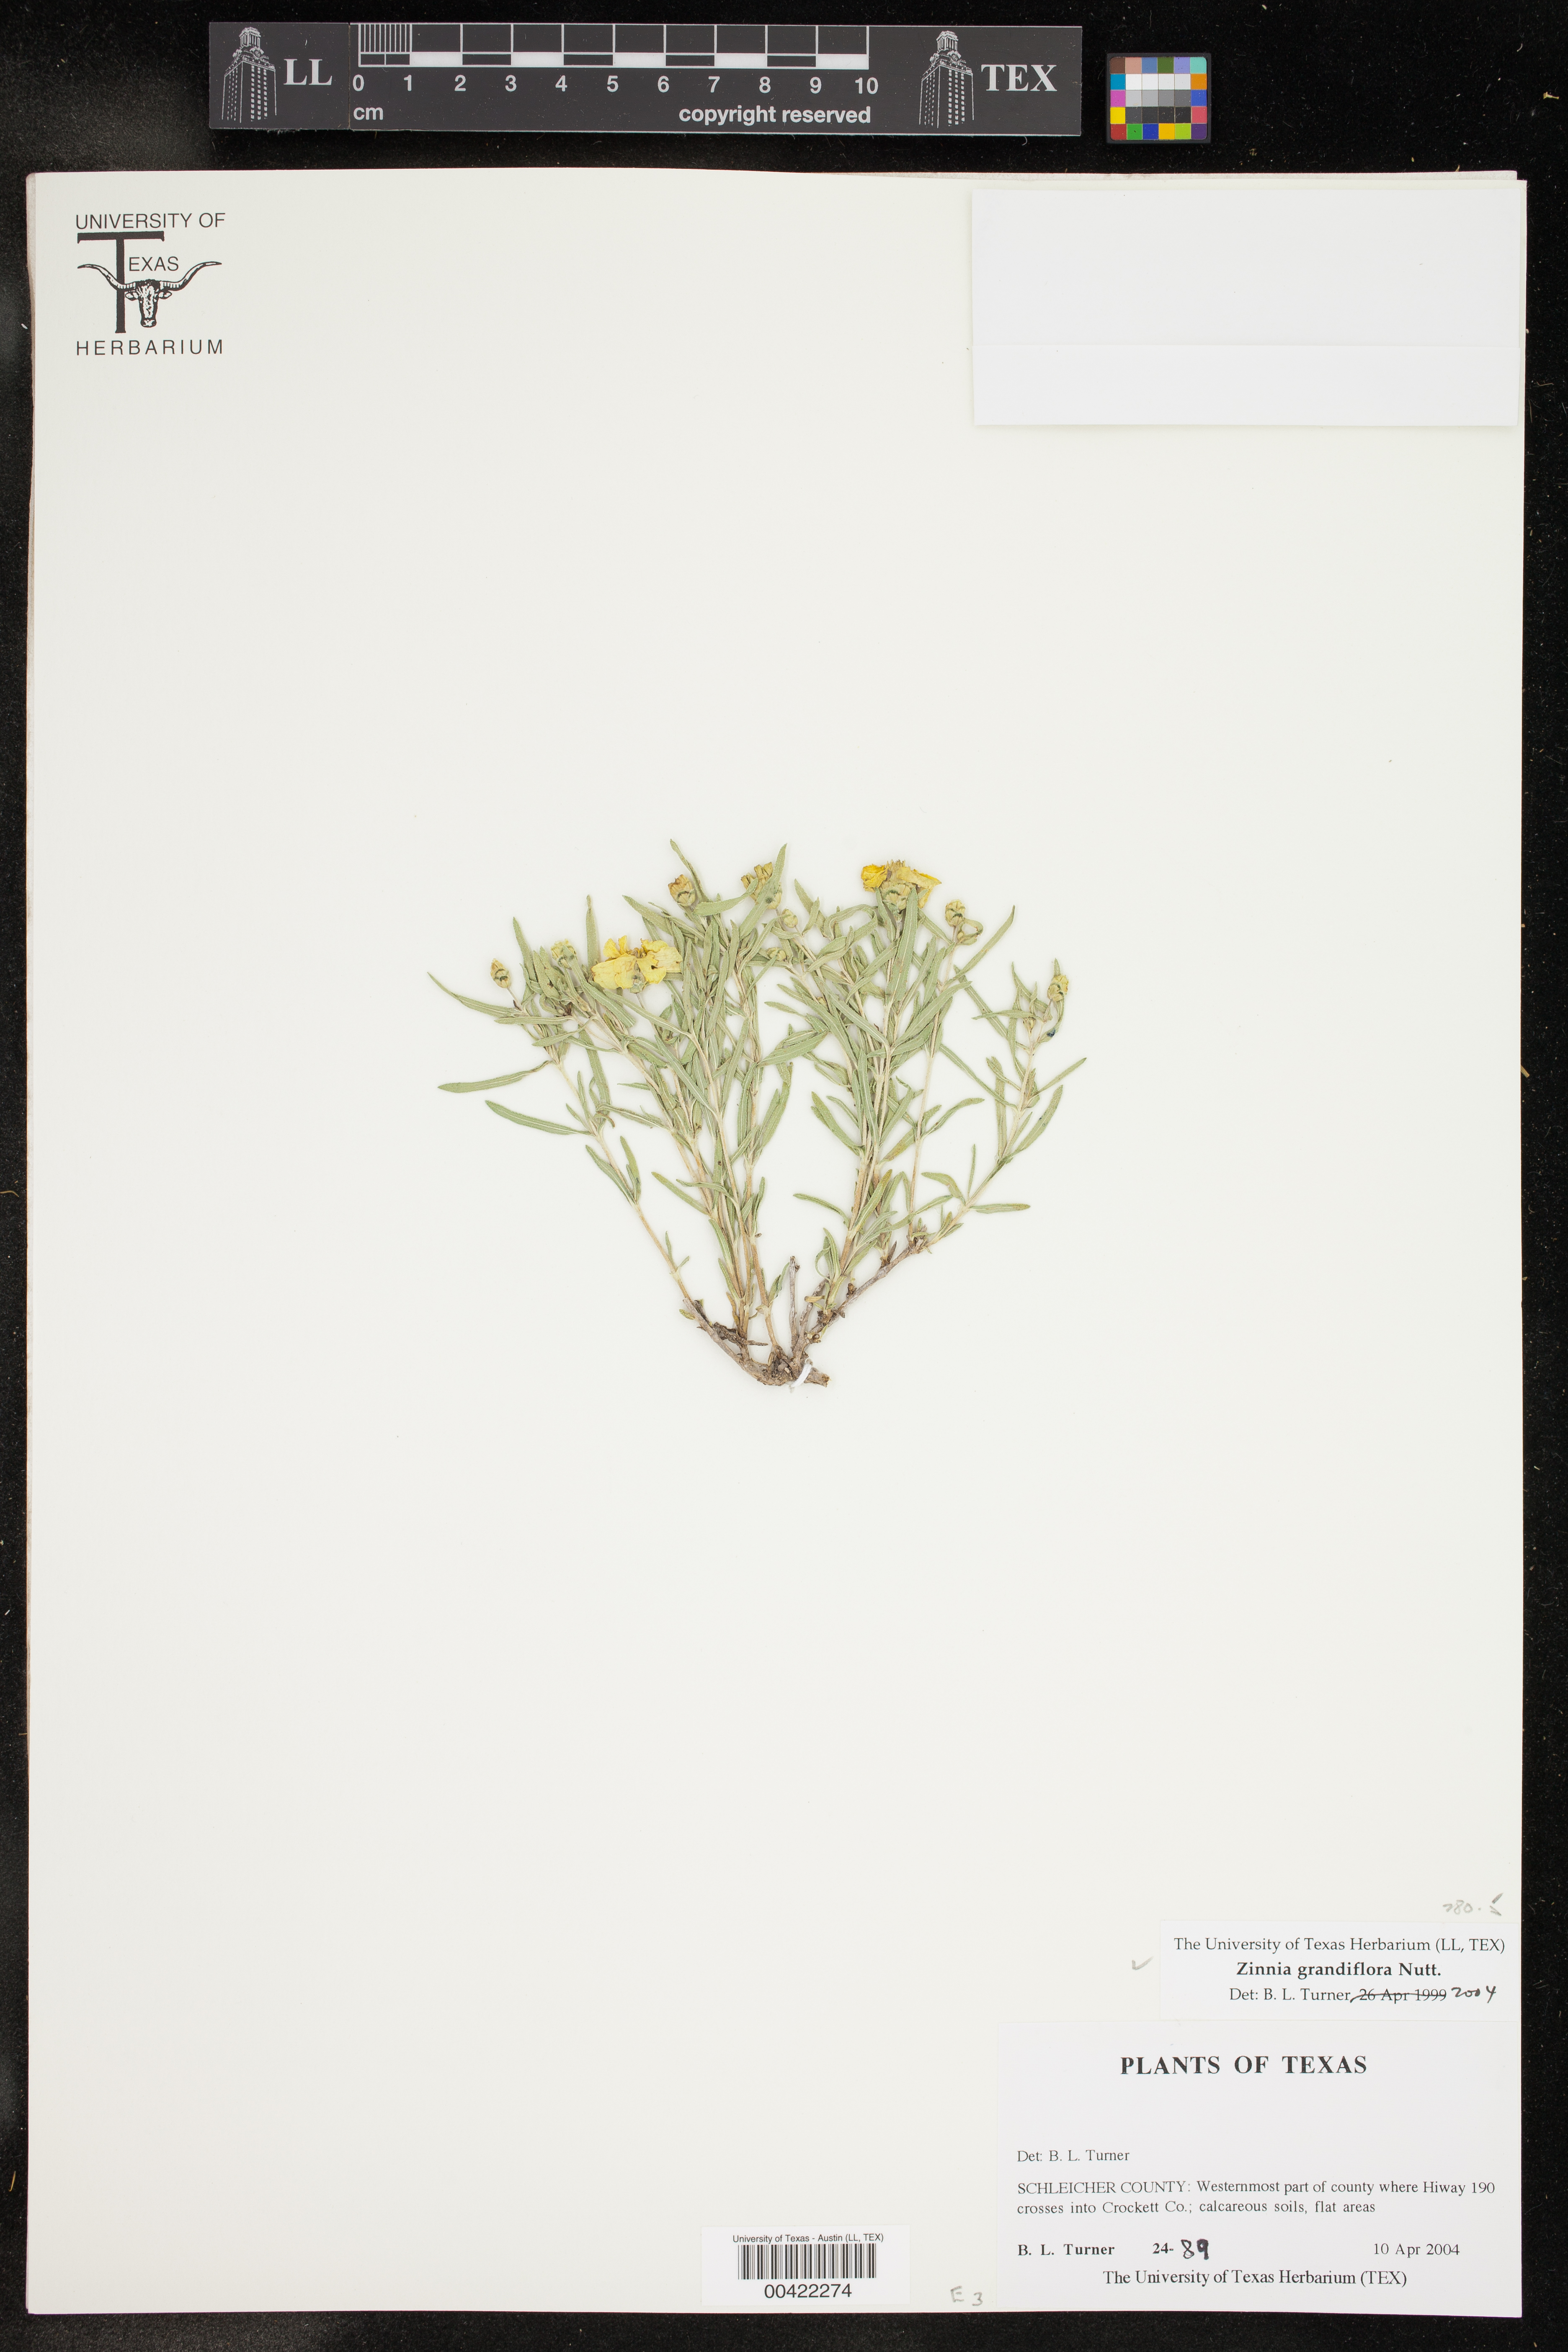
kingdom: Plantae
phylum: Tracheophyta
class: Magnoliopsida
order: Asterales
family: Asteraceae
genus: Zinnia
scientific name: Zinnia grandiflora
